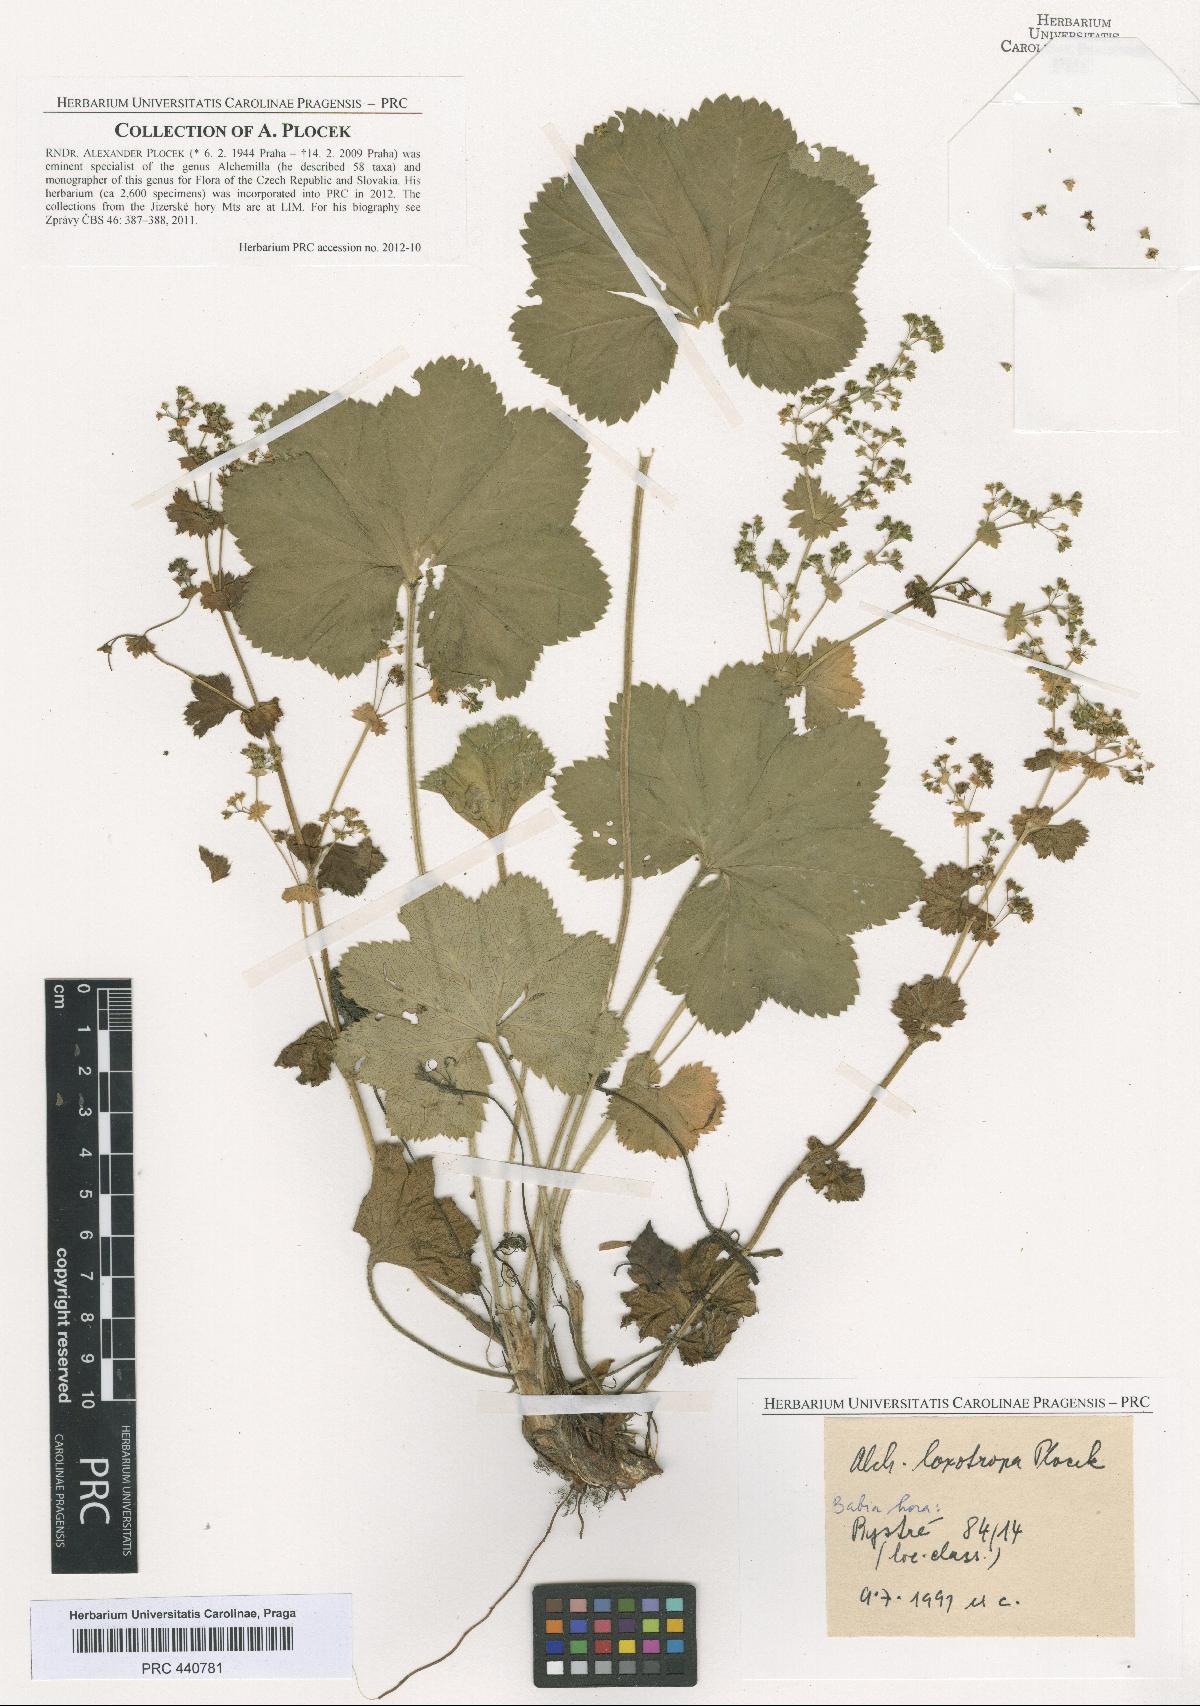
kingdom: Plantae
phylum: Tracheophyta
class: Magnoliopsida
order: Rosales
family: Rosaceae
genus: Alchemilla
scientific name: Alchemilla loxotropa
